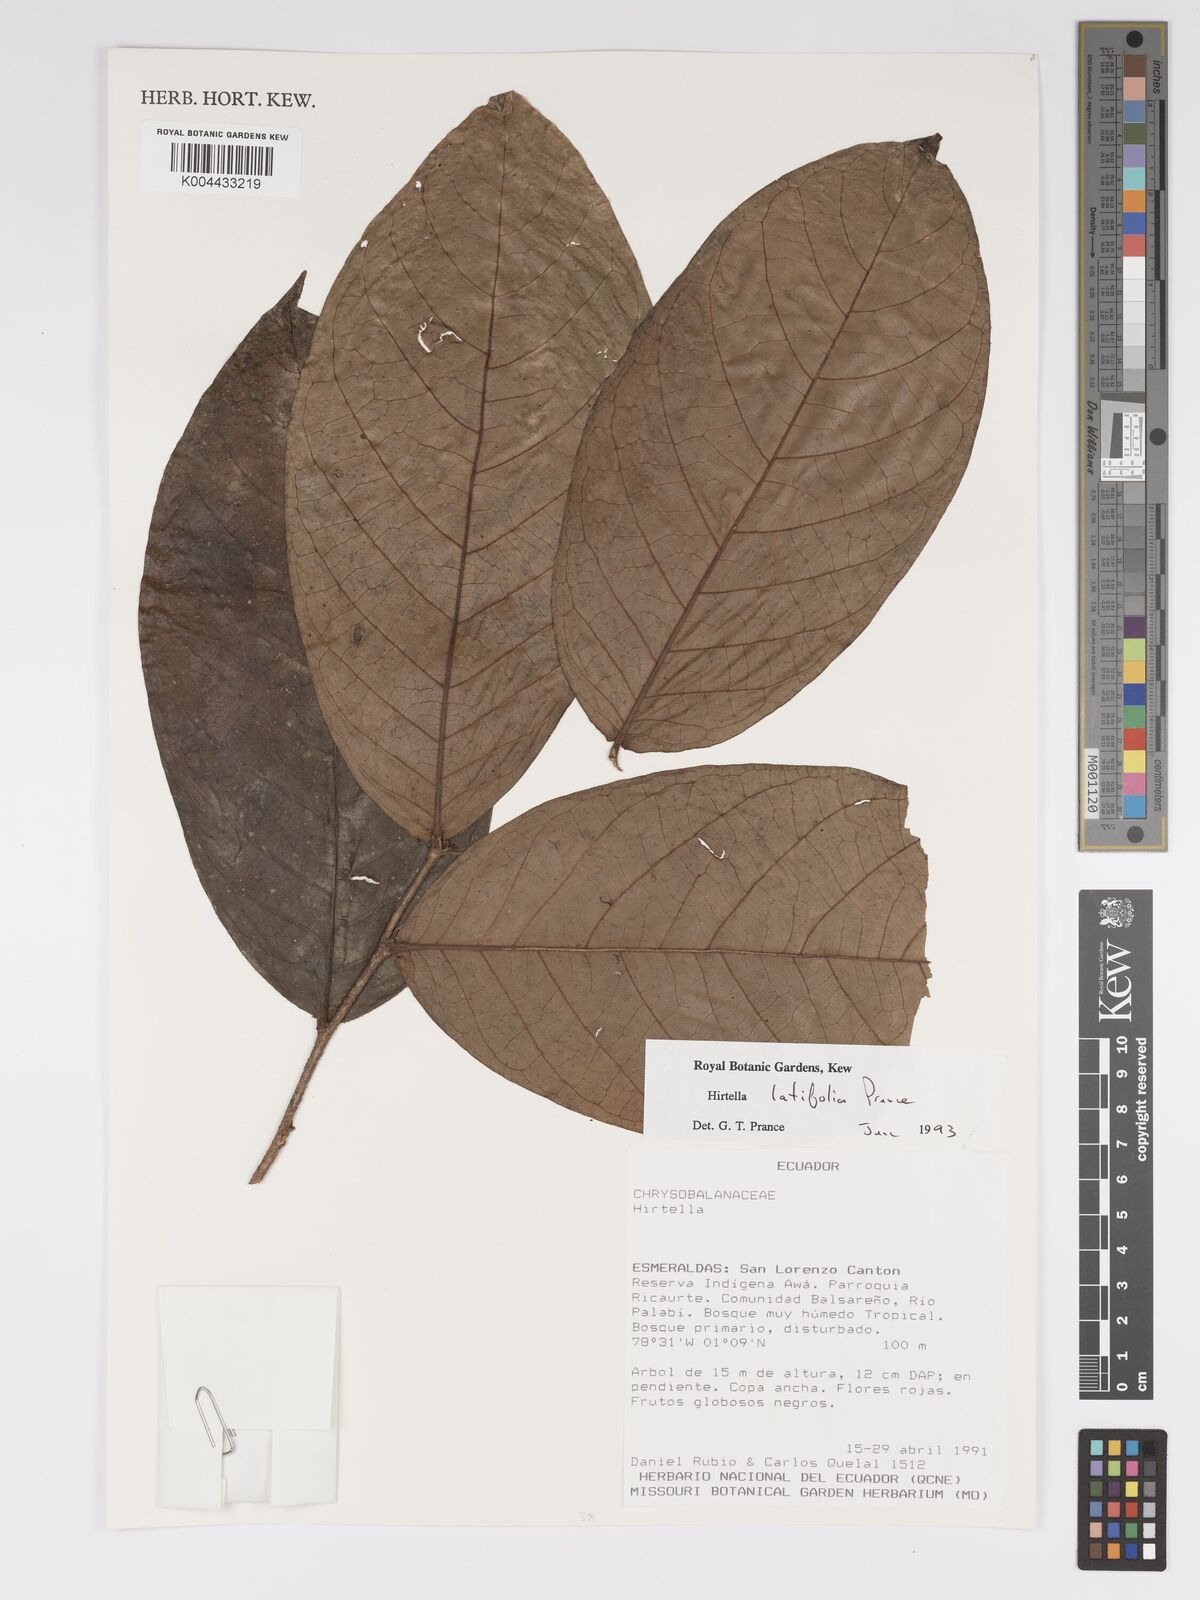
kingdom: Plantae
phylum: Tracheophyta
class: Magnoliopsida
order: Malpighiales
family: Chrysobalanaceae
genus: Hirtella
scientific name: Hirtella latifolia
